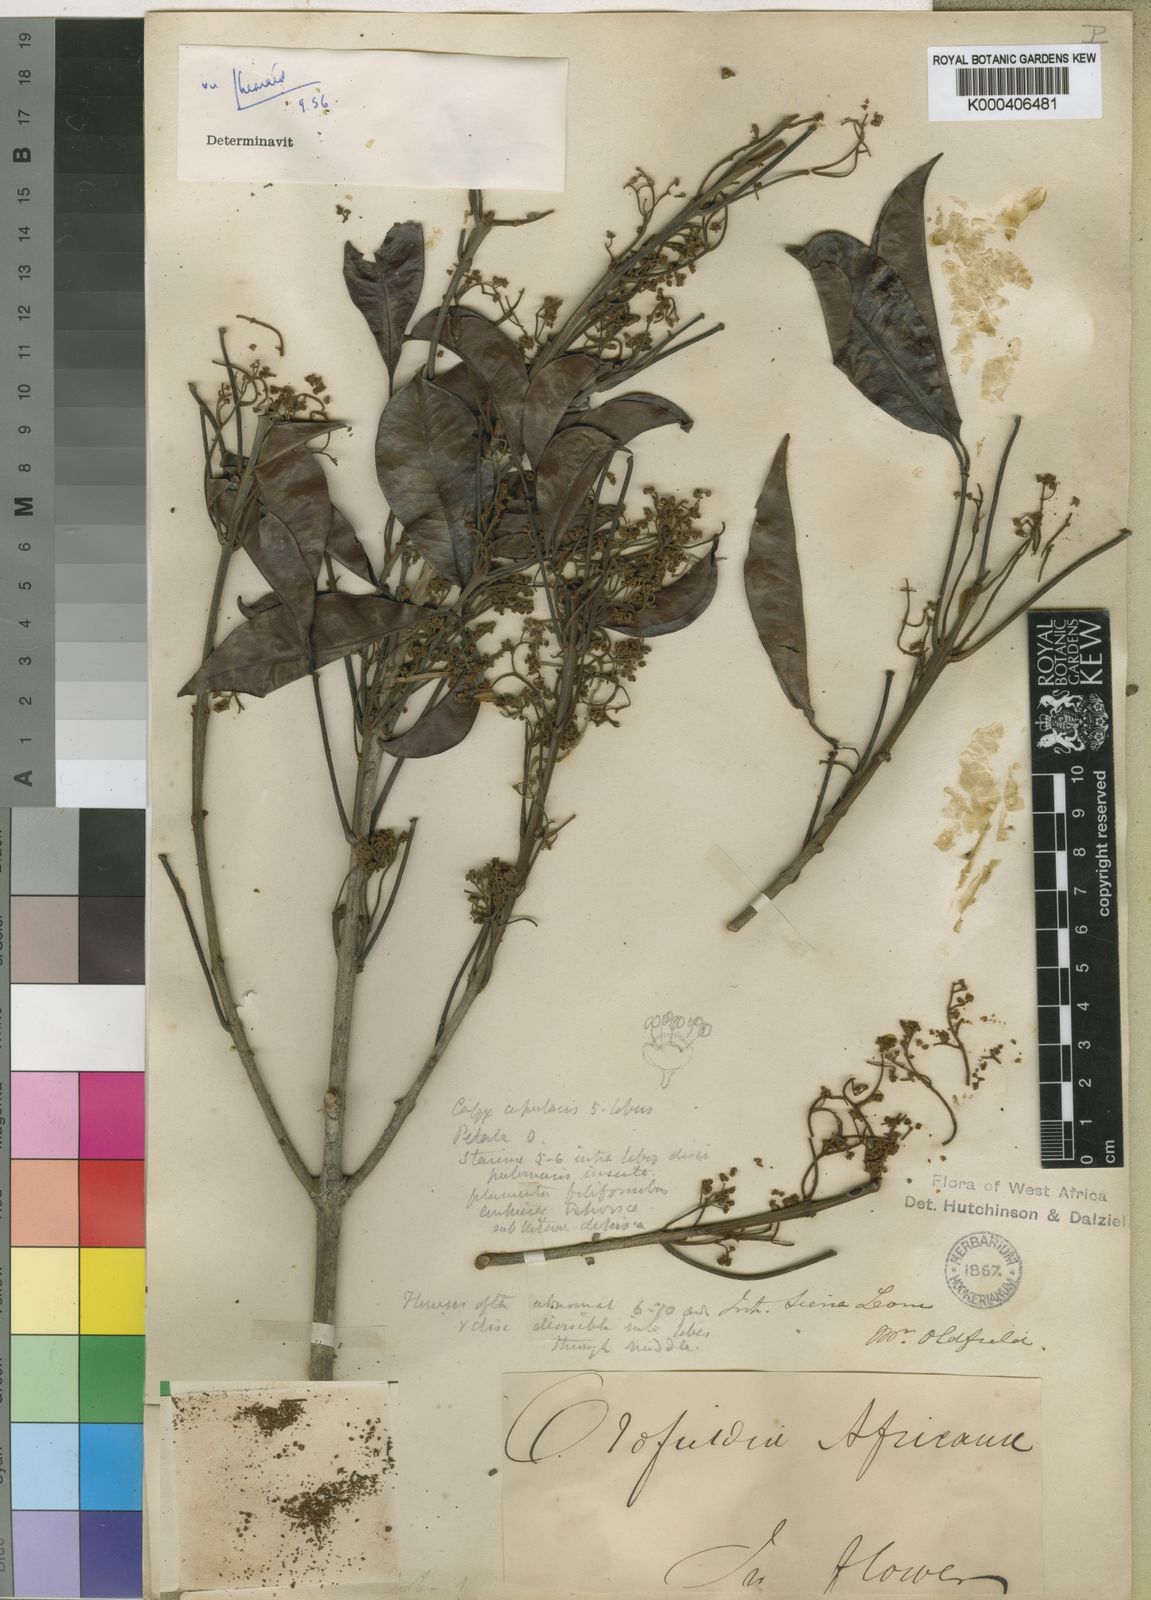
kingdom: Plantae
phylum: Tracheophyta
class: Magnoliopsida
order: Malpighiales
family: Picrodendraceae
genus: Oldfieldia
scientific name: Oldfieldia africana
